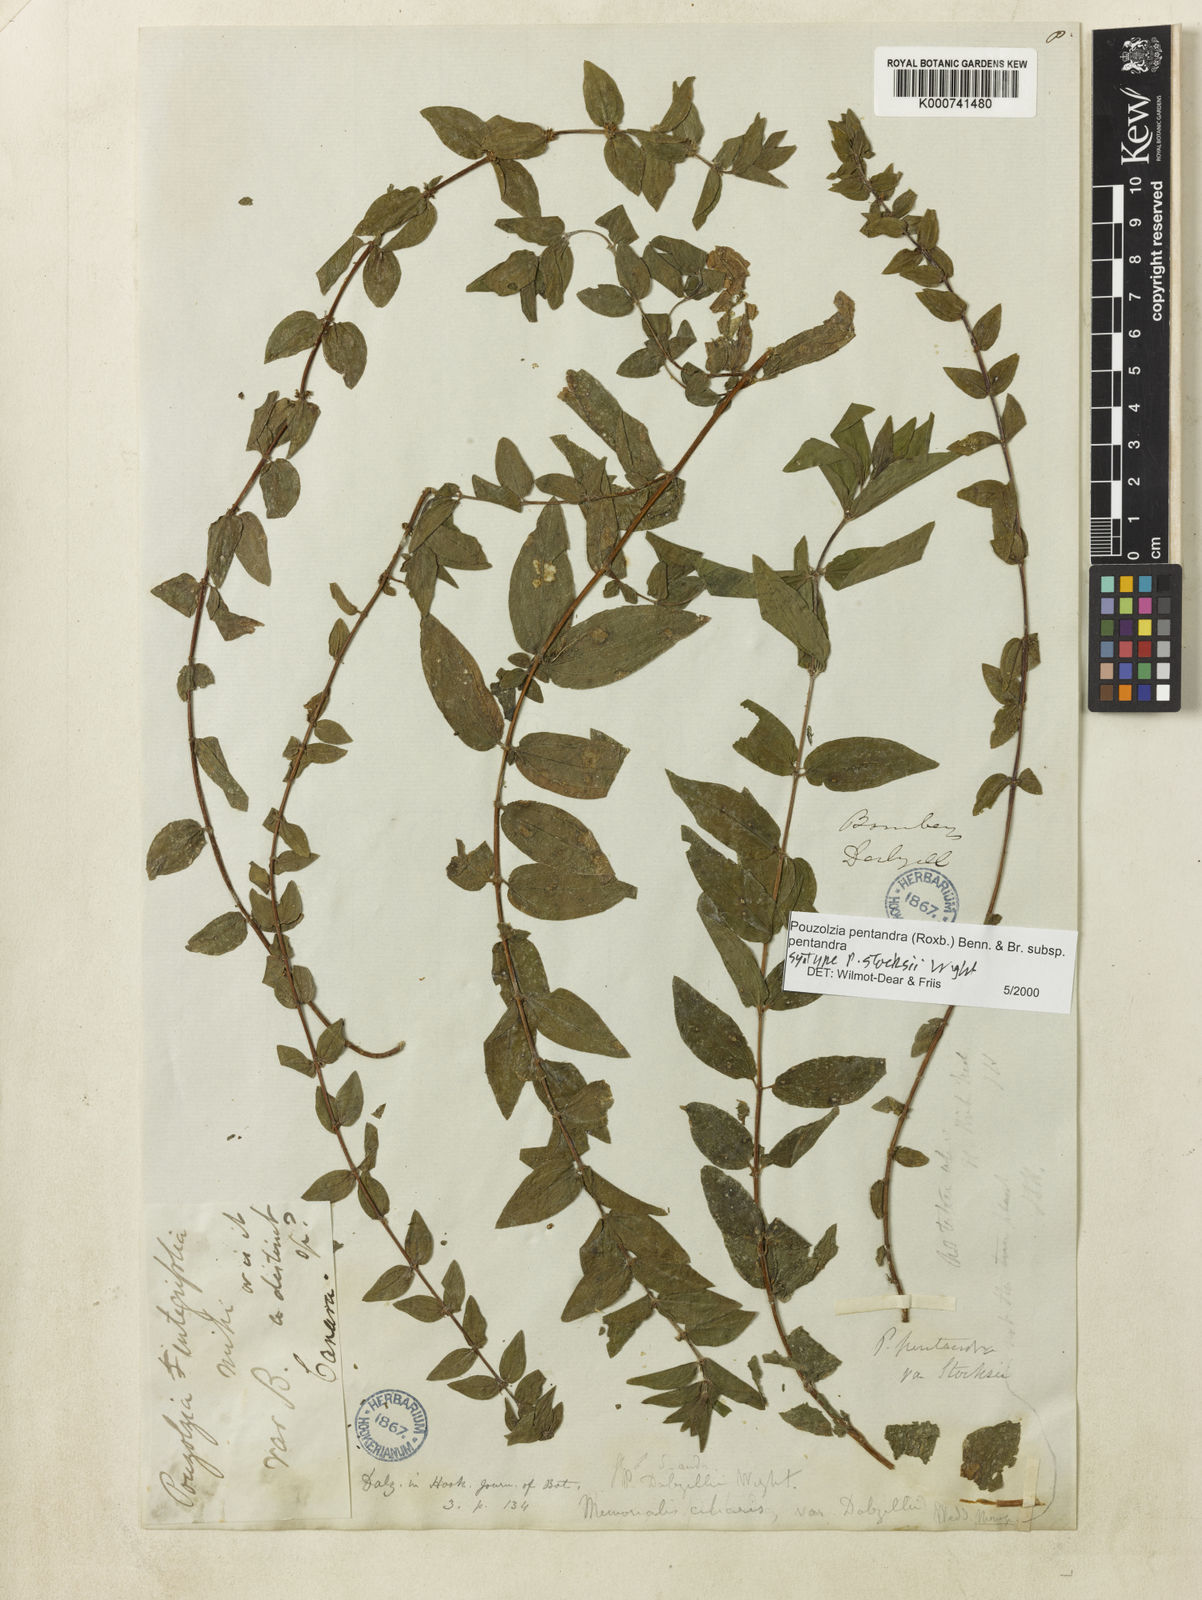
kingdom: Plantae
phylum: Tracheophyta
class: Magnoliopsida
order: Rosales
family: Urticaceae
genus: Gonostegia
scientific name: Gonostegia pentandra
